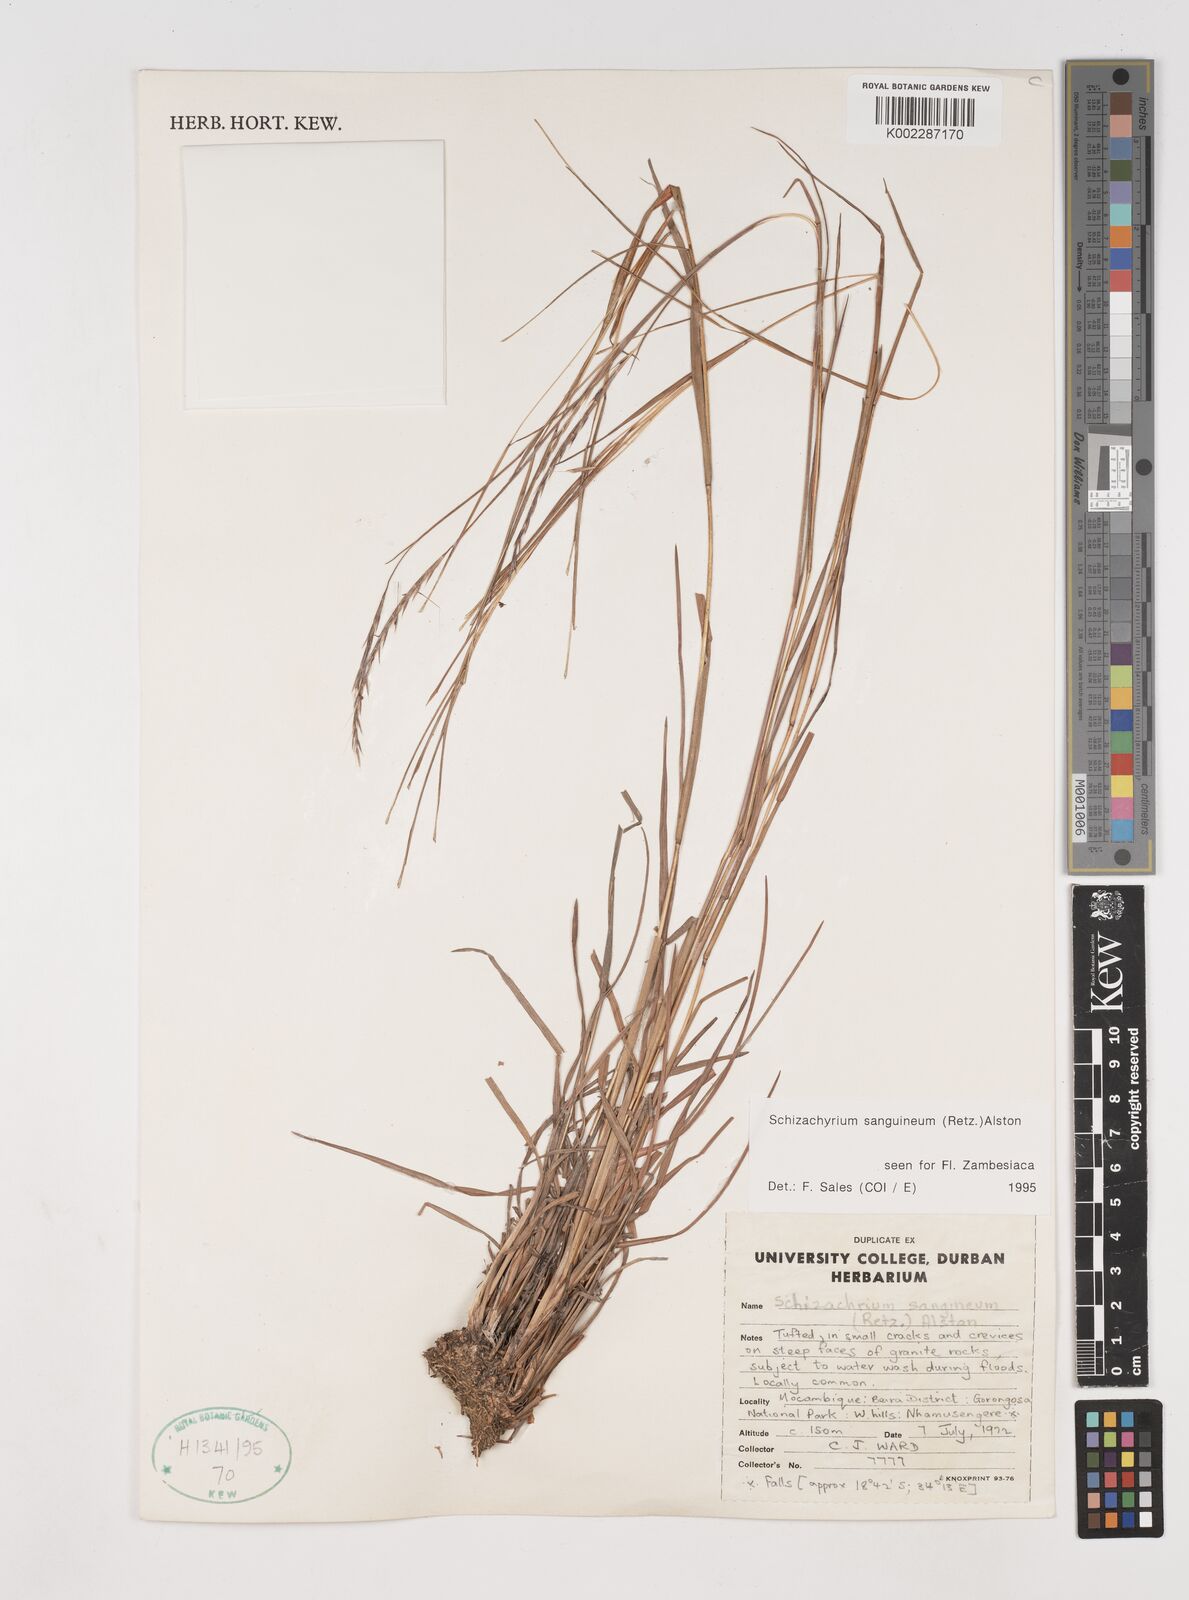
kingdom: Plantae
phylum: Tracheophyta
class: Liliopsida
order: Poales
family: Poaceae
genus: Schizachyrium
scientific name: Schizachyrium sanguineum
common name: Crimson bluestem
